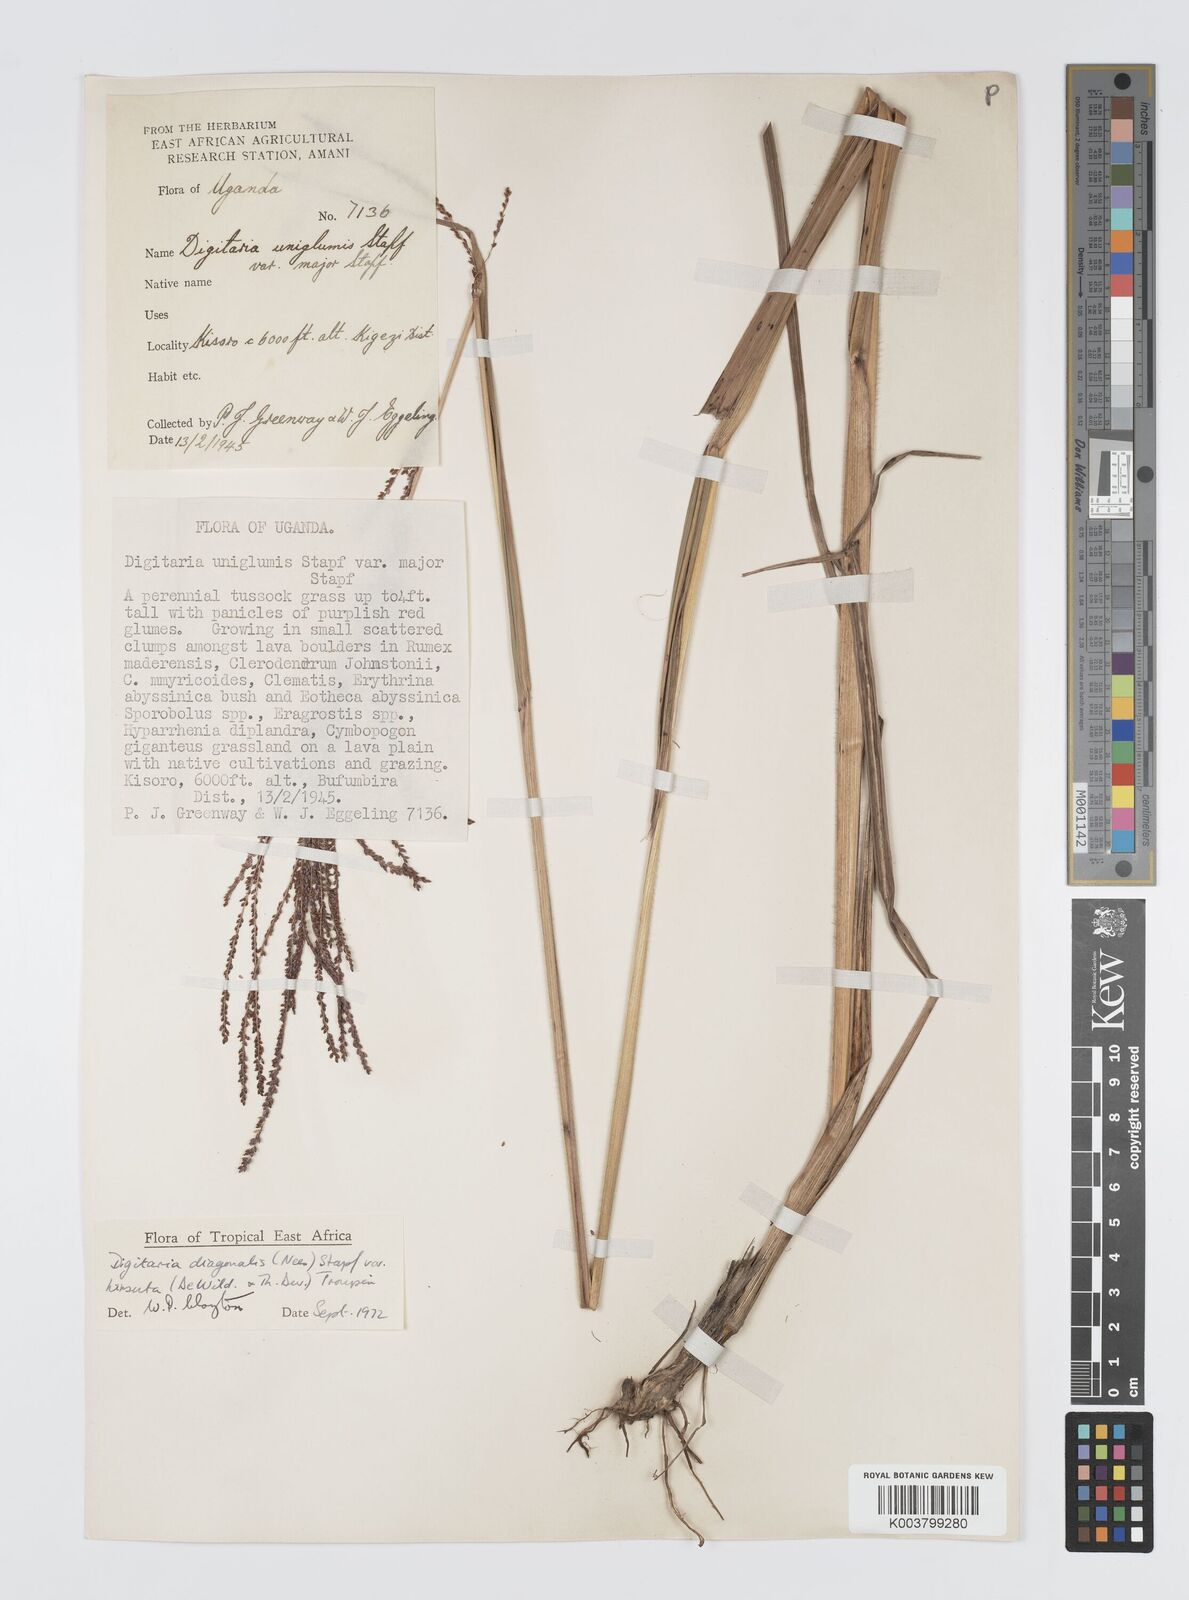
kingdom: Plantae
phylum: Tracheophyta
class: Liliopsida
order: Poales
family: Poaceae
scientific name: Poaceae
